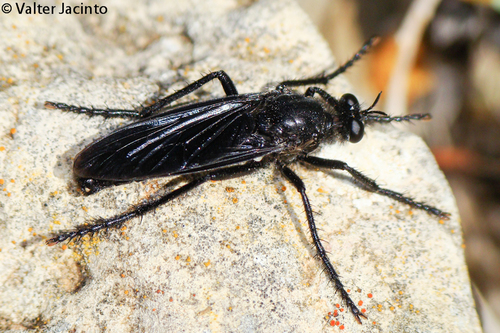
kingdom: Animalia
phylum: Arthropoda
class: Insecta
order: Diptera
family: Asilidae
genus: Dasypogon
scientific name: Dasypogon diadema
